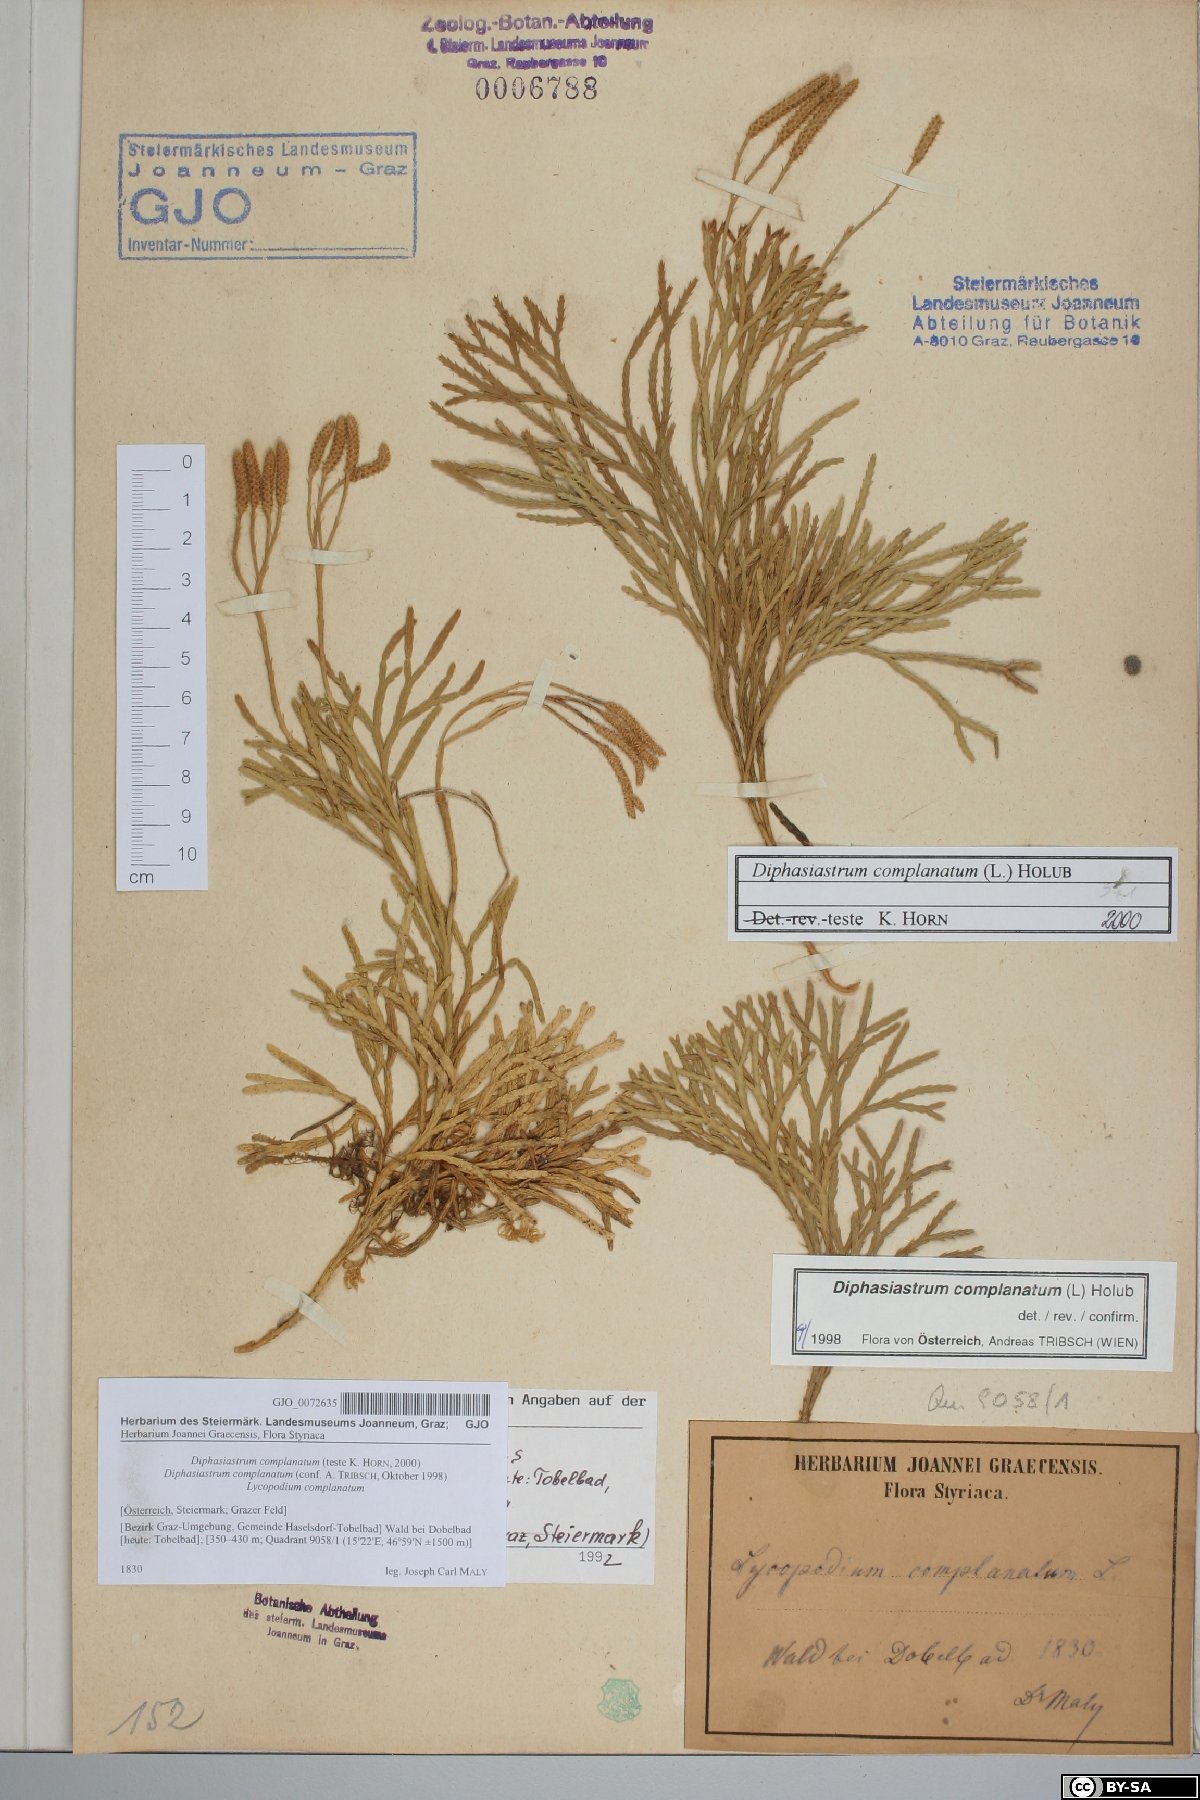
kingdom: Plantae
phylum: Tracheophyta
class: Lycopodiopsida
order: Lycopodiales
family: Lycopodiaceae
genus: Diphasiastrum
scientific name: Diphasiastrum complanatum
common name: Northern running-pine
